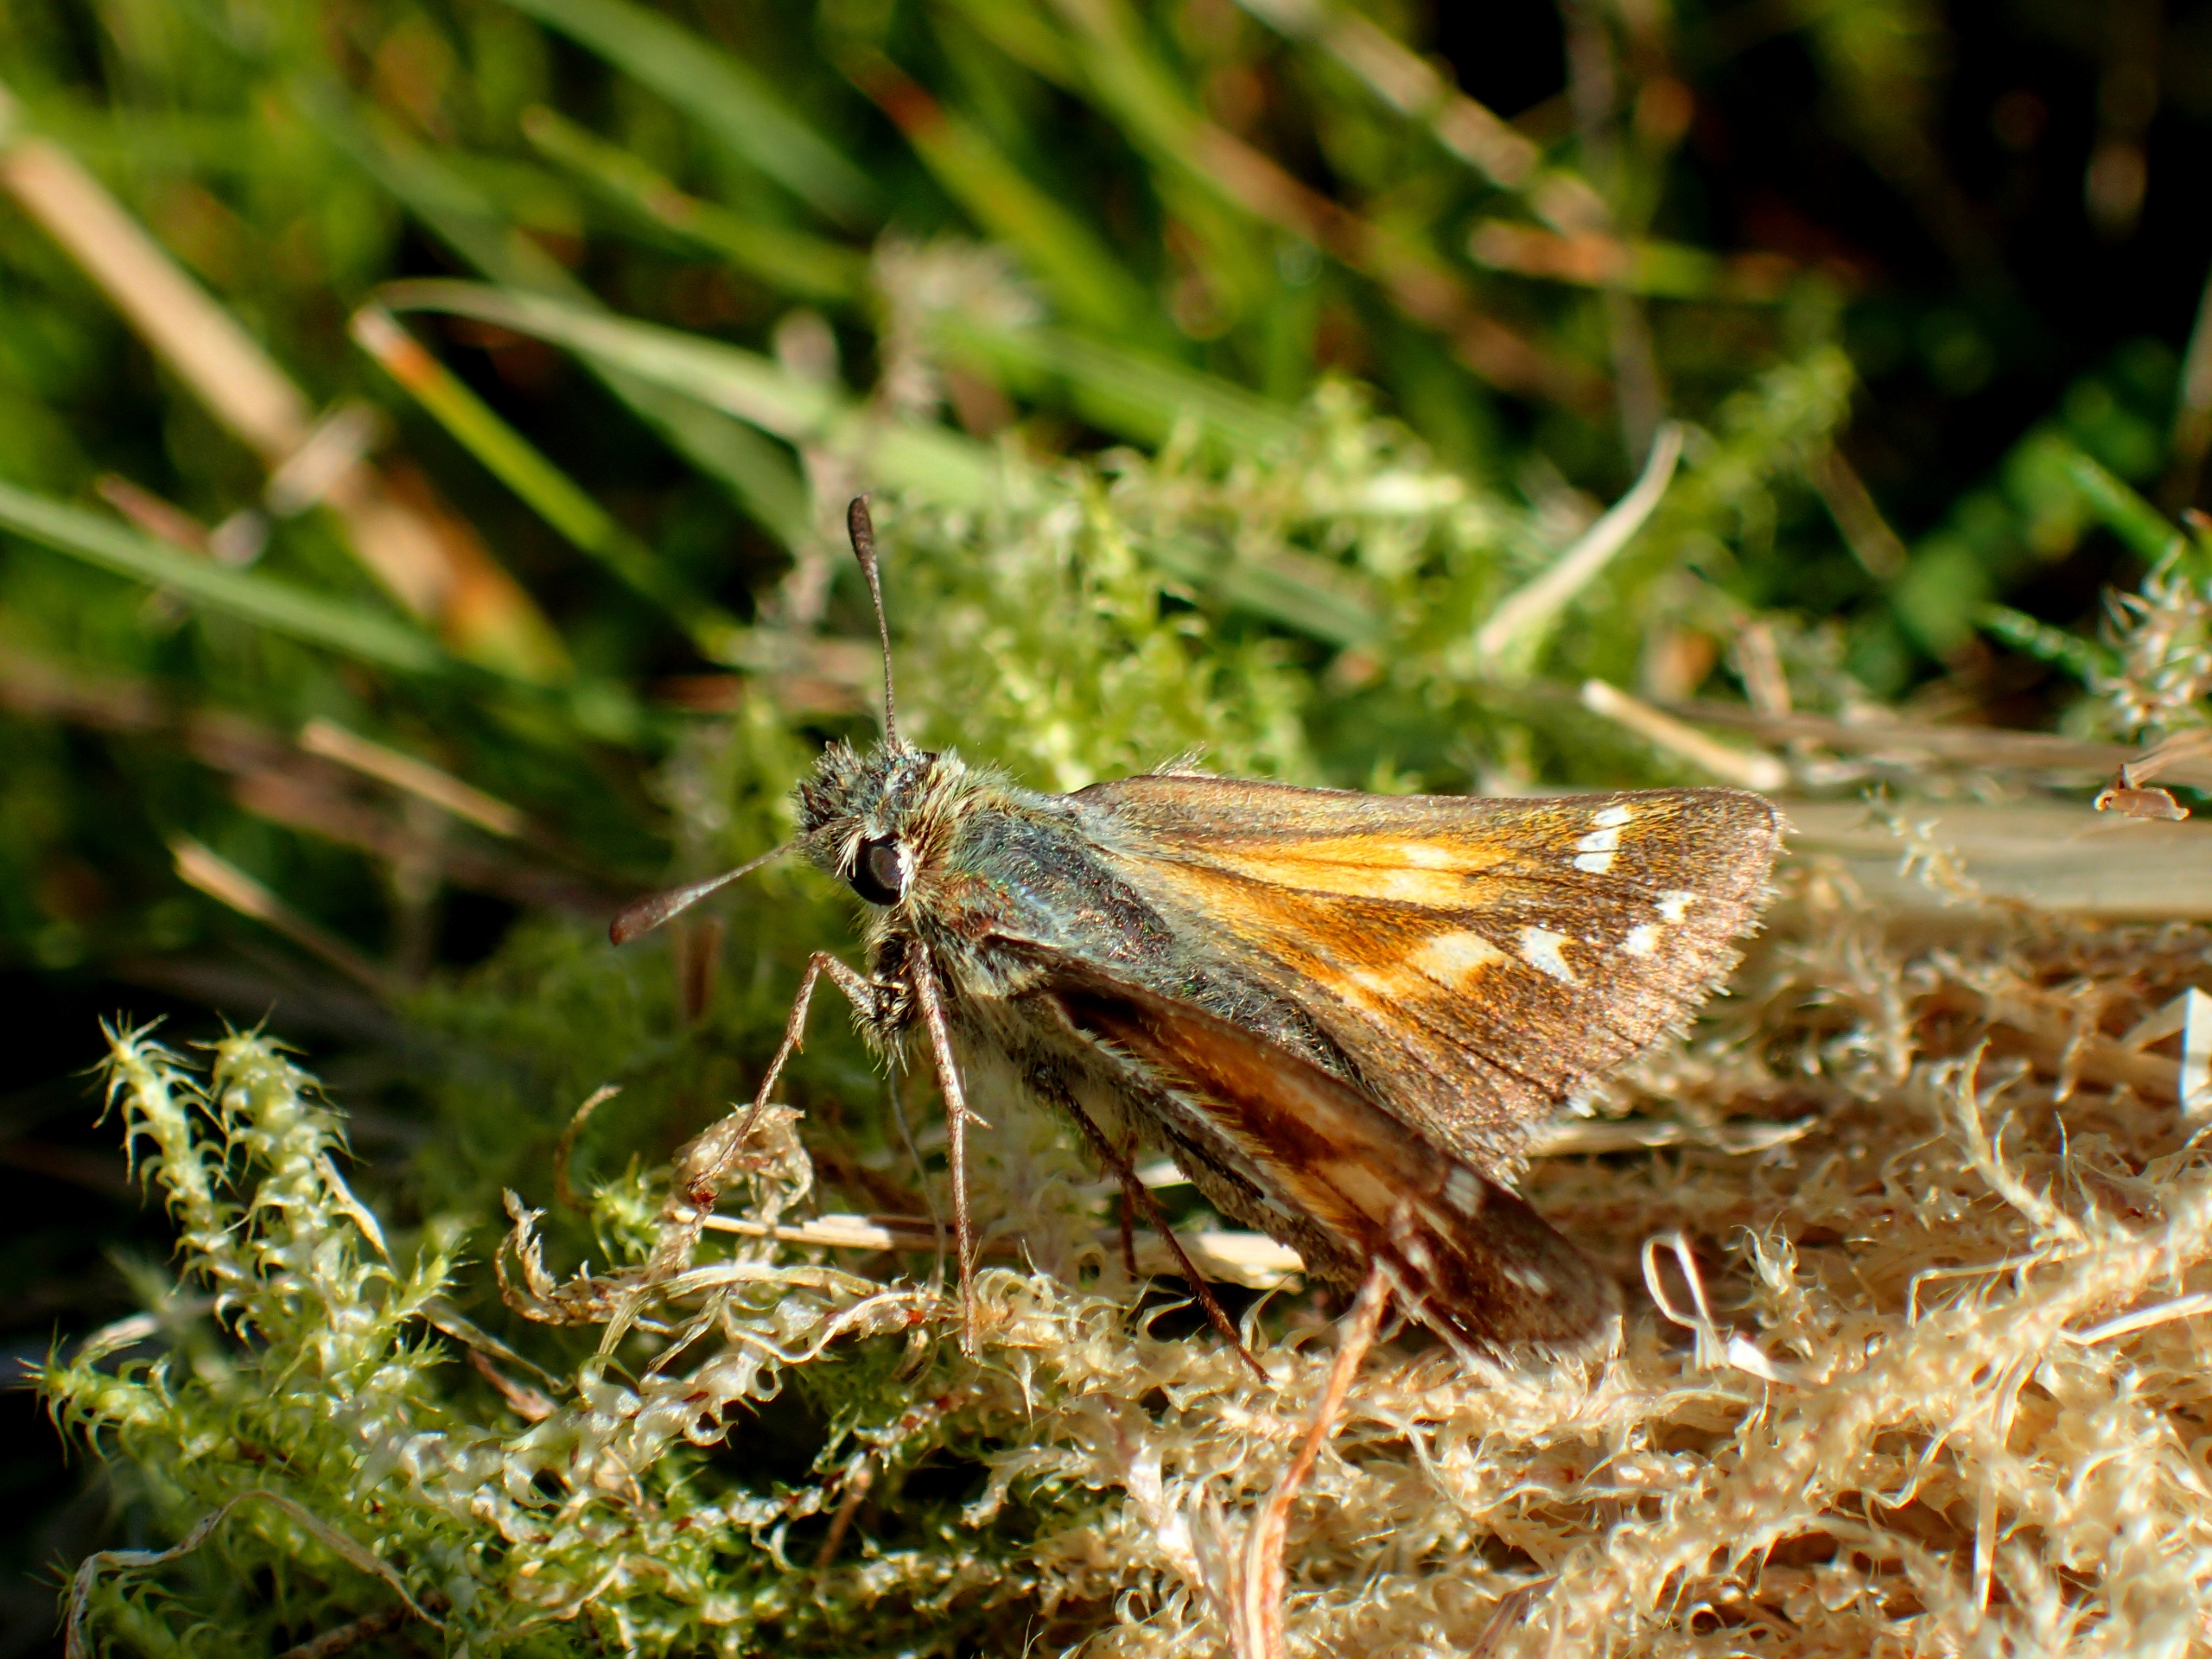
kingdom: Animalia
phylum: Arthropoda
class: Insecta
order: Lepidoptera
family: Hesperiidae
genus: Hesperia
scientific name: Hesperia comma
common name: Kommabredpande
